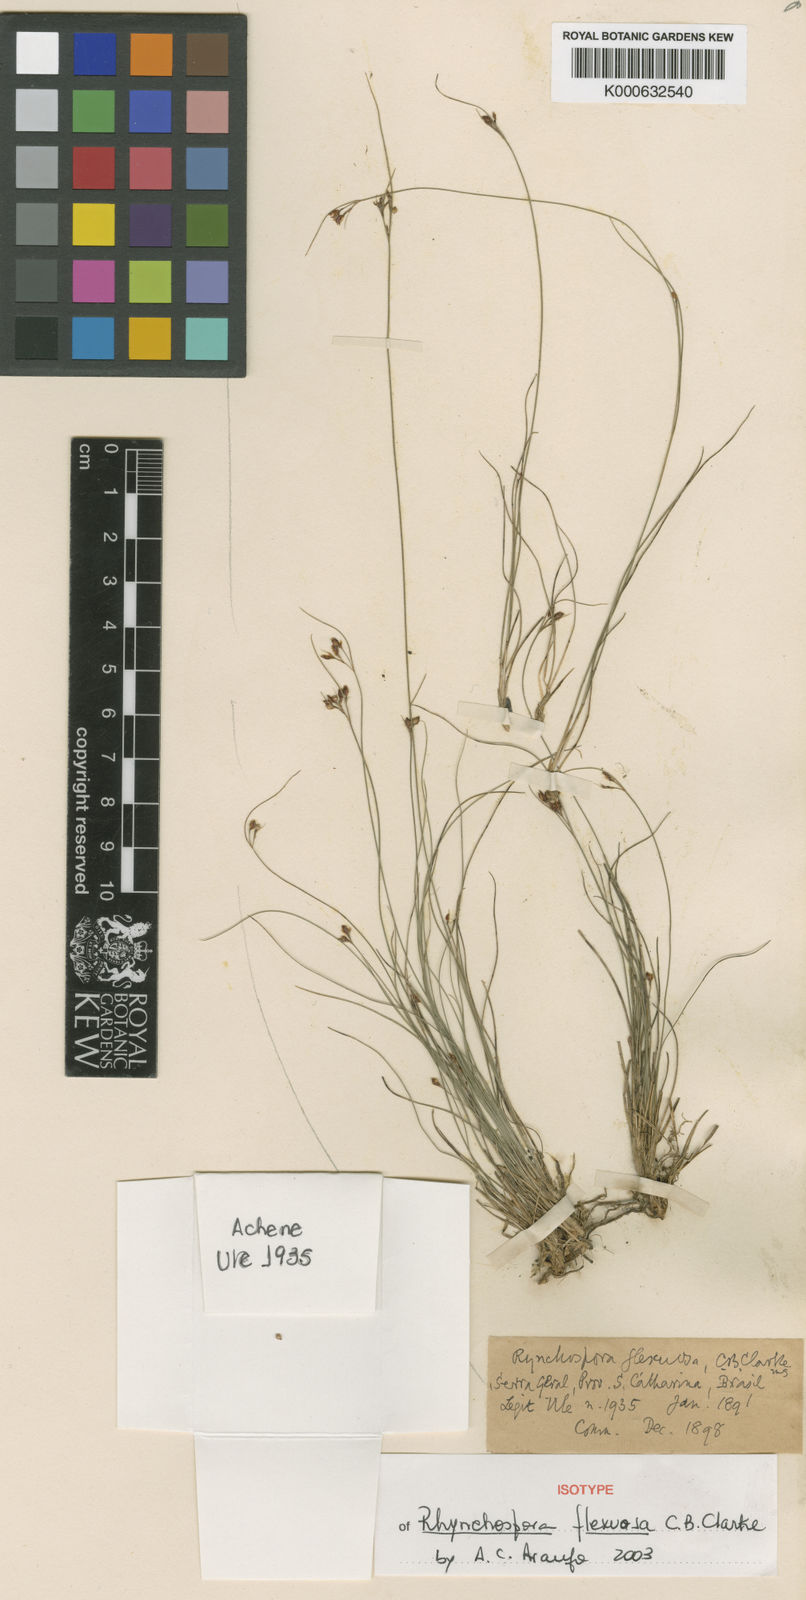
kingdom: Plantae
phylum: Tracheophyta
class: Liliopsida
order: Poales
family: Cyperaceae
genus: Rhynchospora
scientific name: Rhynchospora edwalliana
